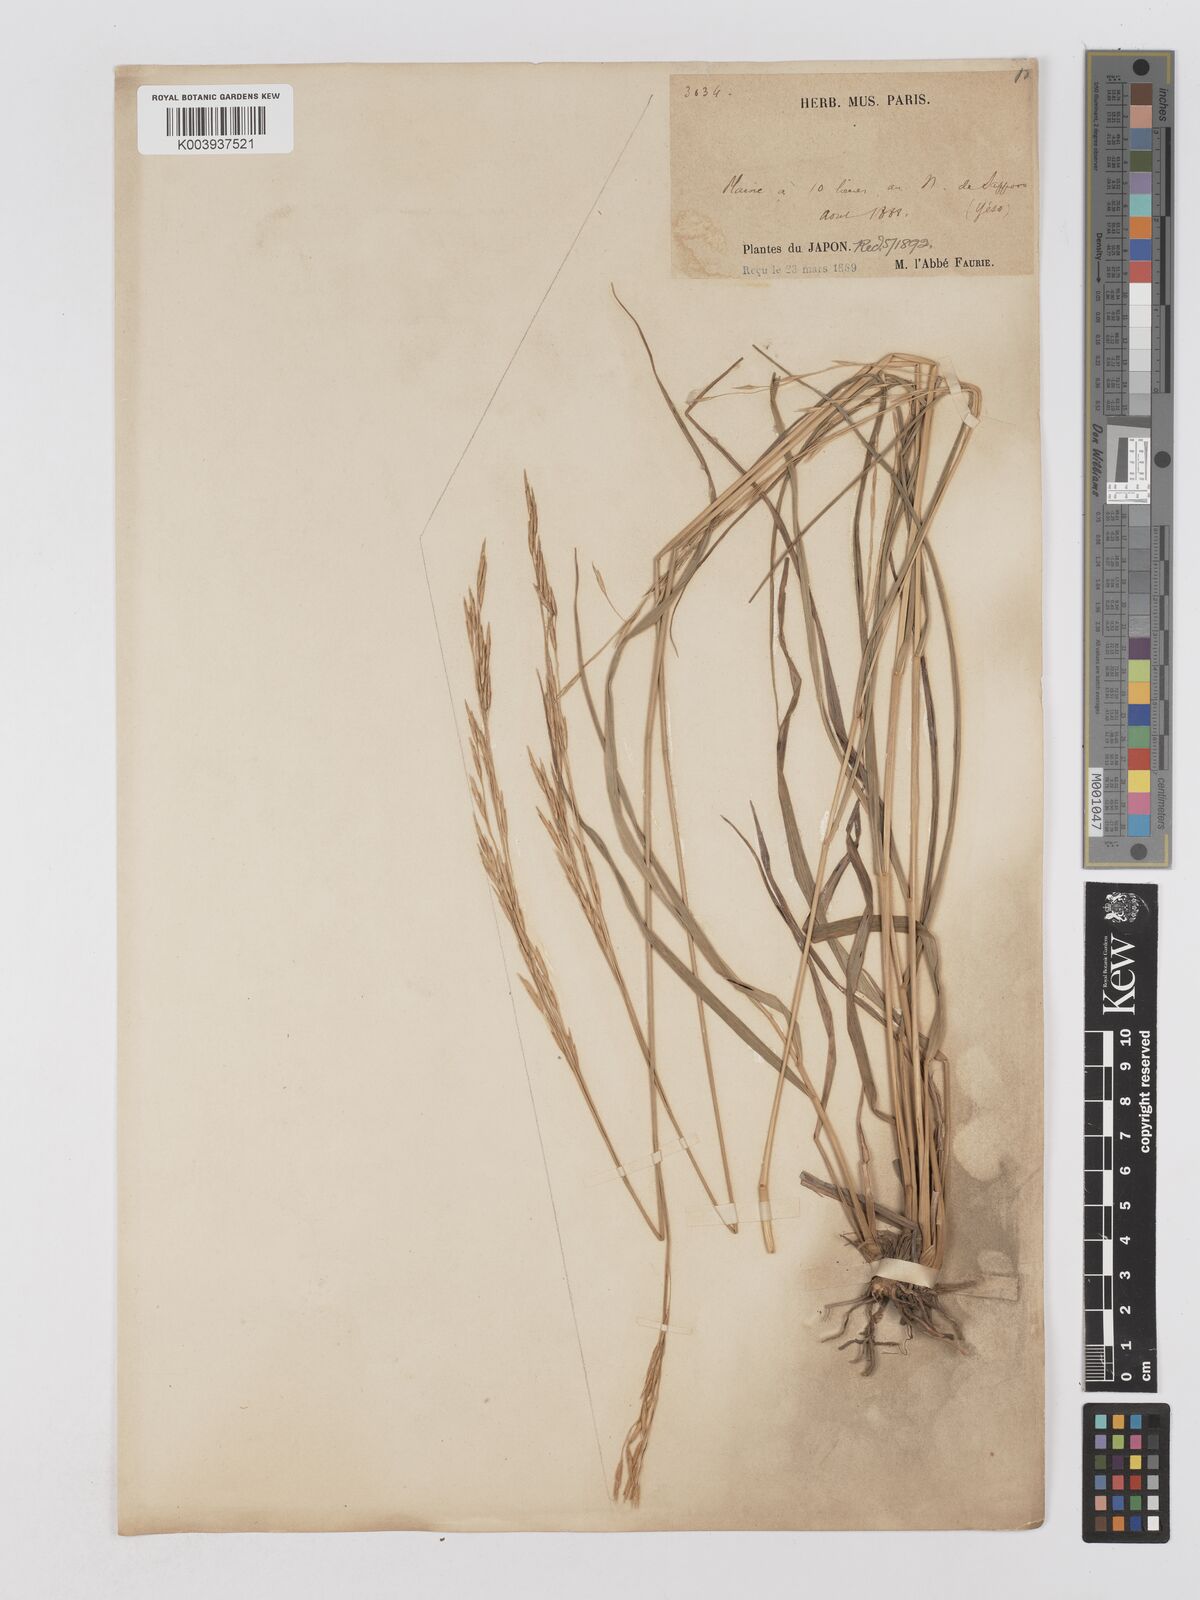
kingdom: Plantae
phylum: Tracheophyta
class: Liliopsida
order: Poales
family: Poaceae
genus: Moliniopsis
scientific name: Moliniopsis japonica
